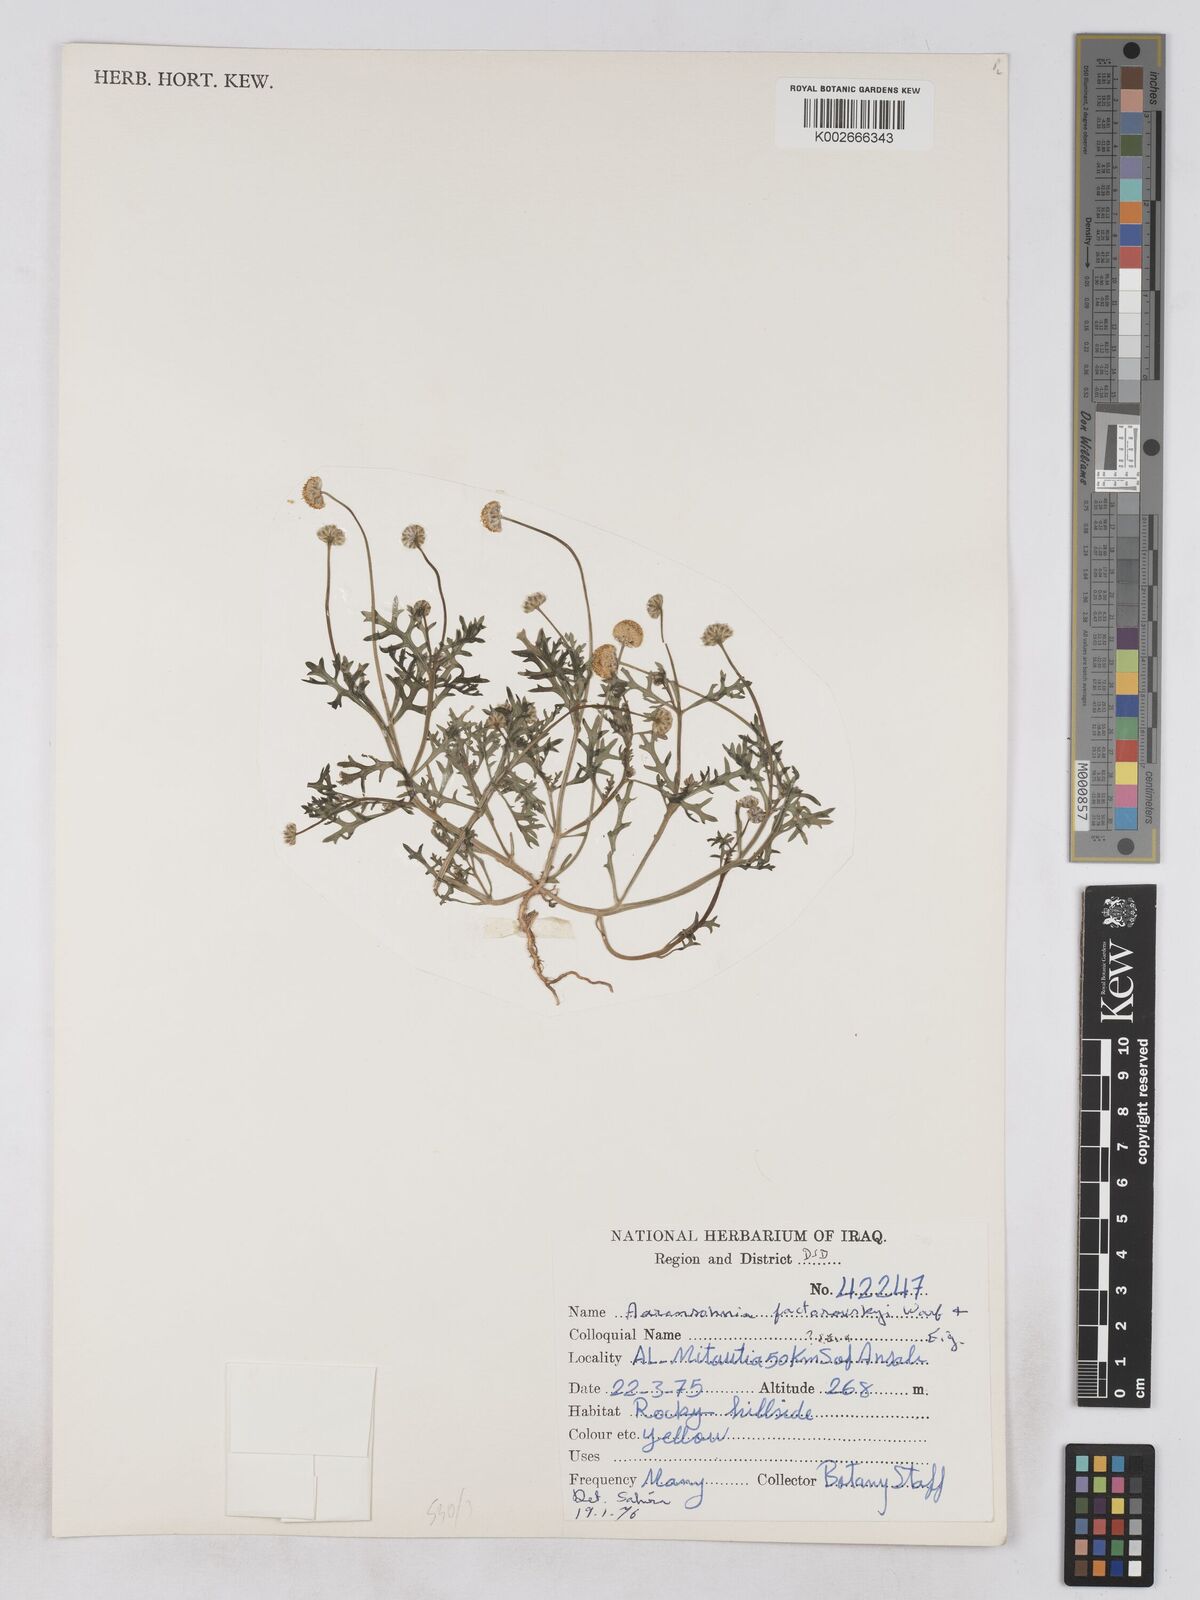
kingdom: Plantae
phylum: Tracheophyta
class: Magnoliopsida
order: Asterales
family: Asteraceae
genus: Otoglyphis
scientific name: Otoglyphis factorovskyi
